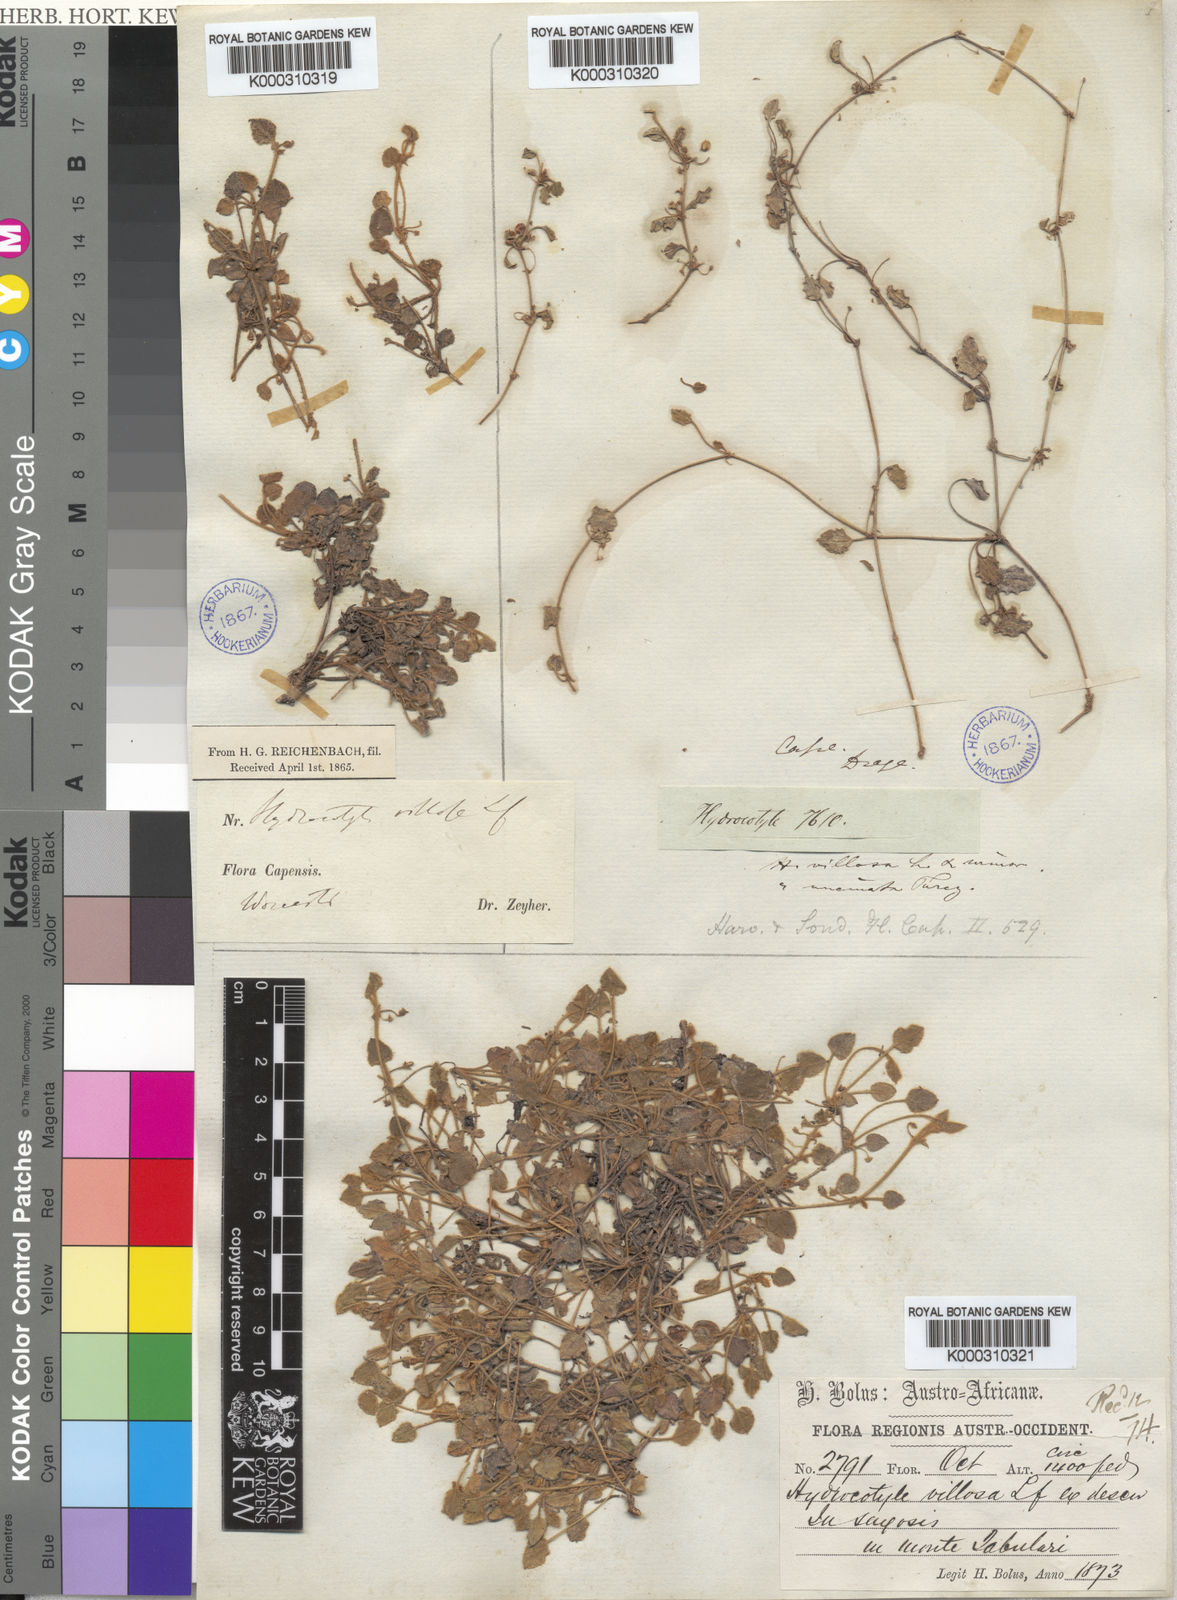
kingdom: Plantae
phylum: Tracheophyta
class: Magnoliopsida
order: Apiales
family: Apiaceae
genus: Centella
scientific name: Centella villosa
